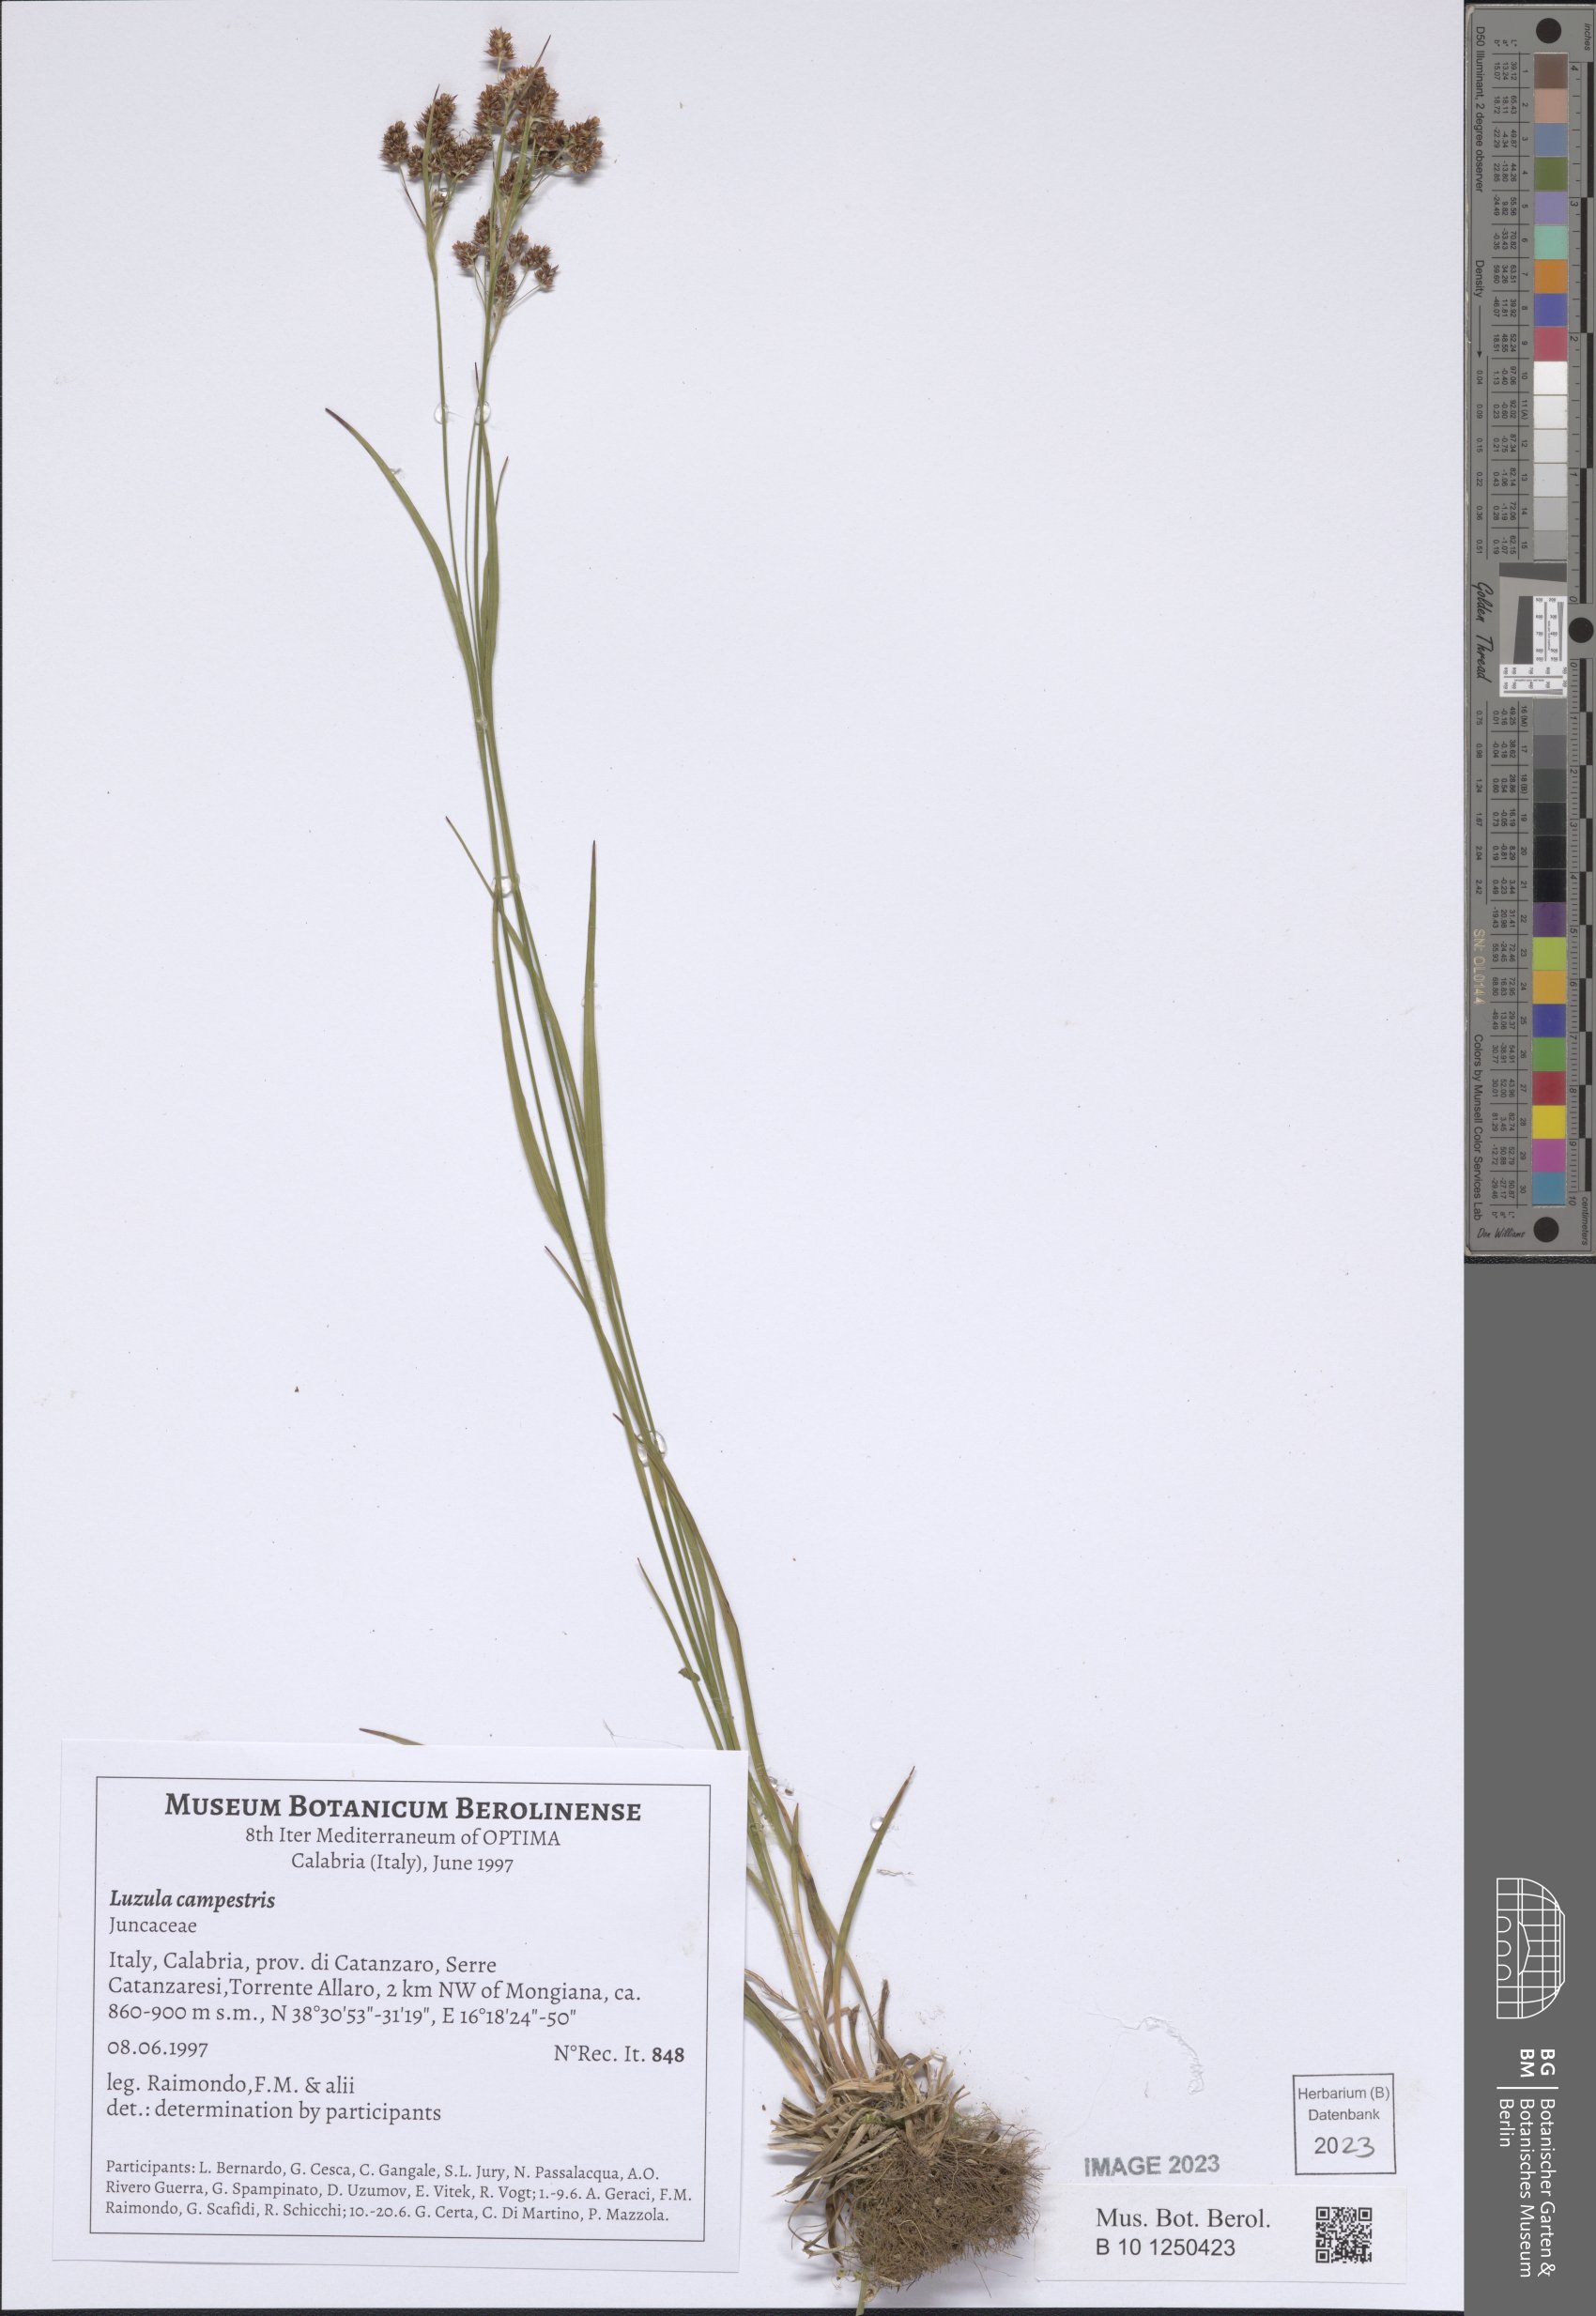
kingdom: Plantae
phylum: Tracheophyta
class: Liliopsida
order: Poales
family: Juncaceae
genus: Luzula
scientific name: Luzula campestris
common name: Field wood-rush
